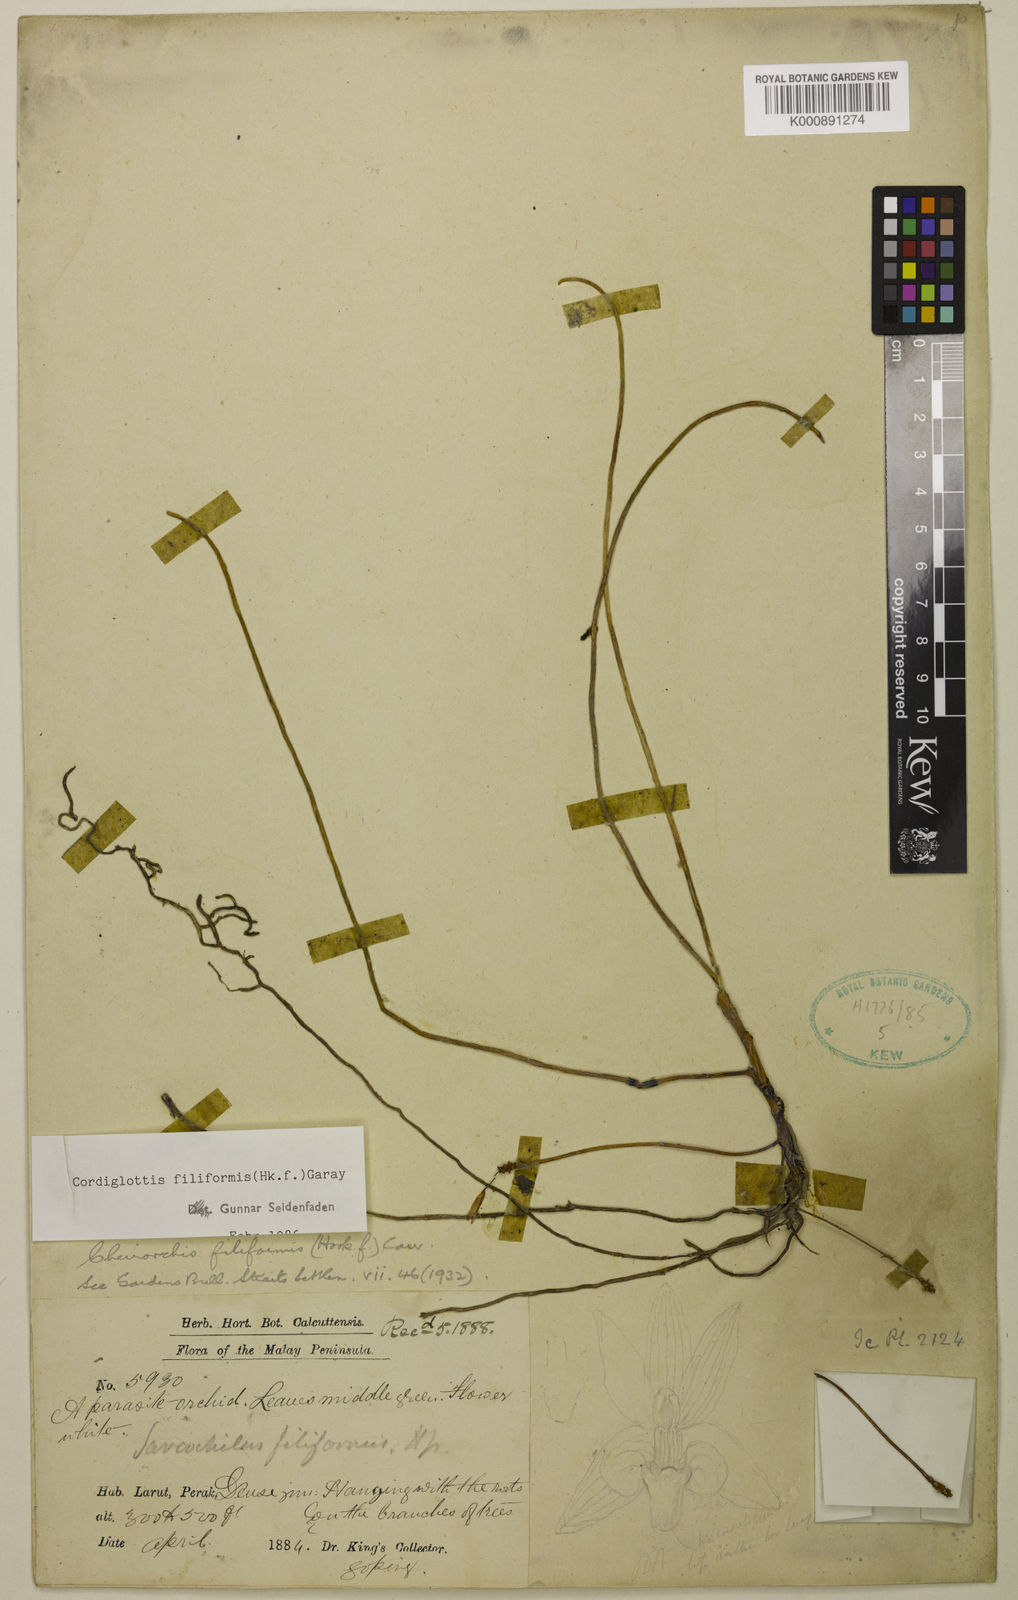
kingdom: Plantae
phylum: Tracheophyta
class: Liliopsida
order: Asparagales
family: Orchidaceae
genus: Thrixspermum
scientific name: Thrixspermum filiforme
